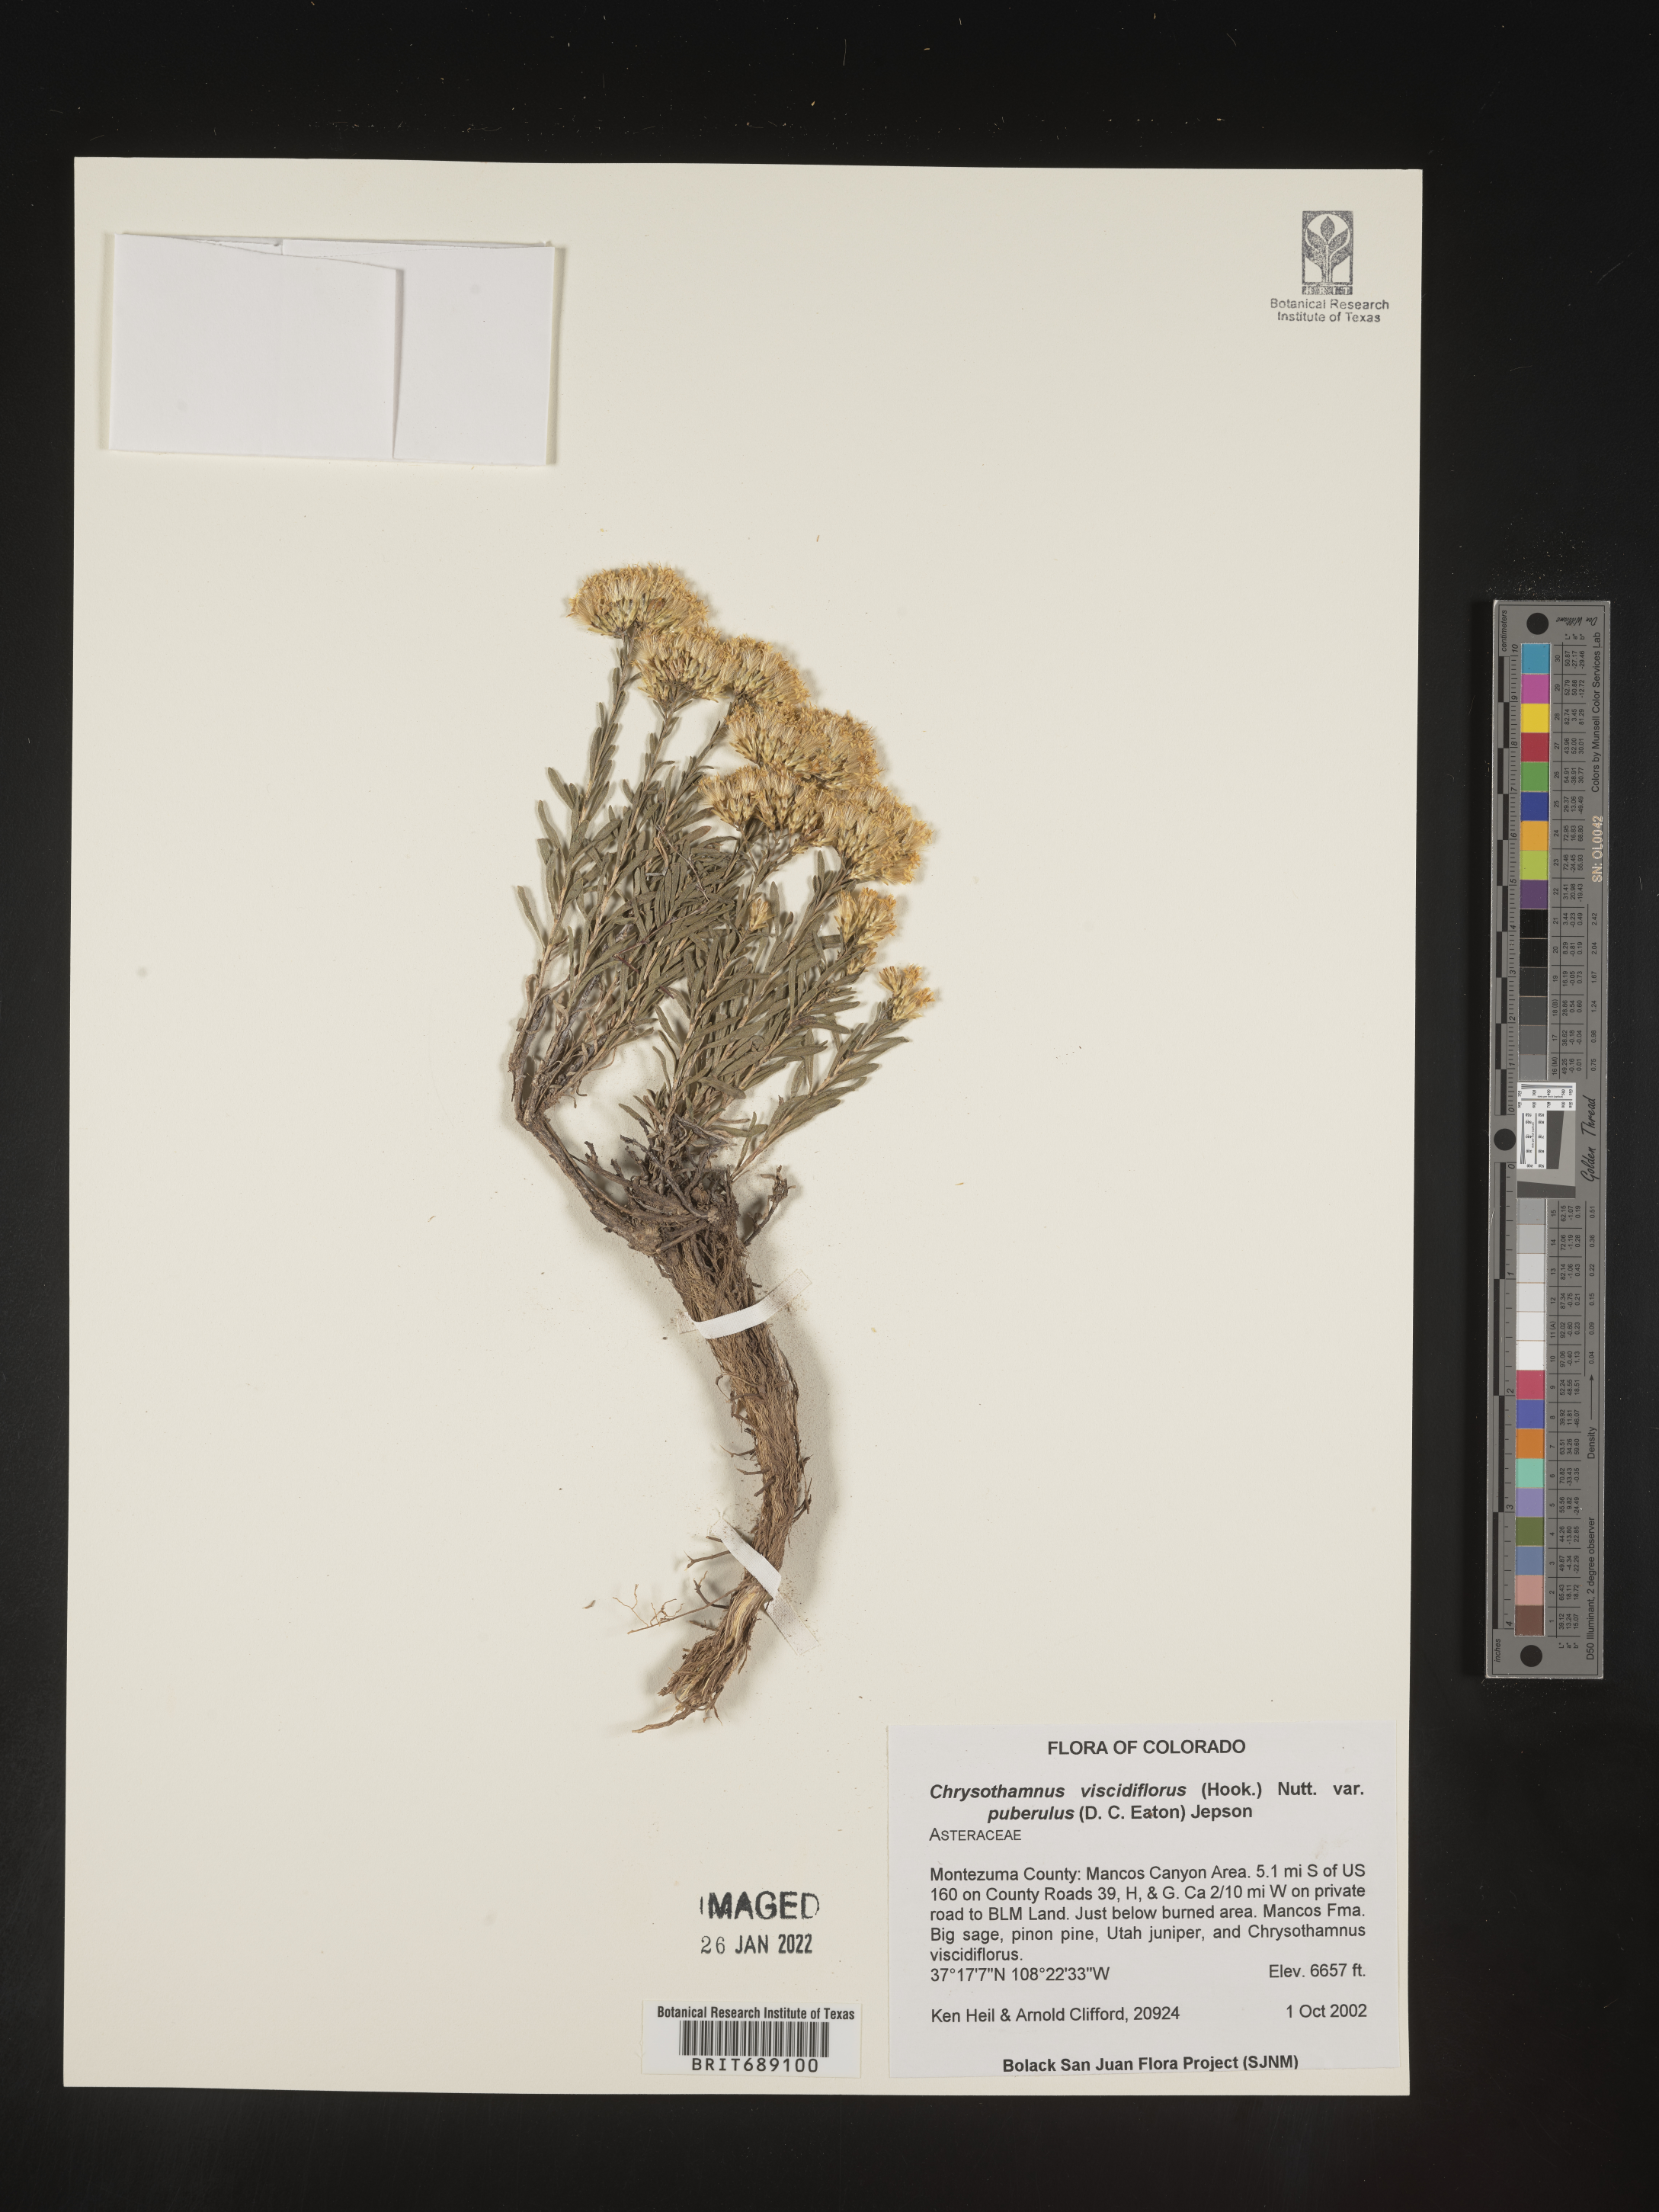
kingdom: Plantae
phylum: Tracheophyta
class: Magnoliopsida
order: Asterales
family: Asteraceae
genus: Chrysothamnus
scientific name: Chrysothamnus viscidiflorus
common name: Yellow rabbitbrush
